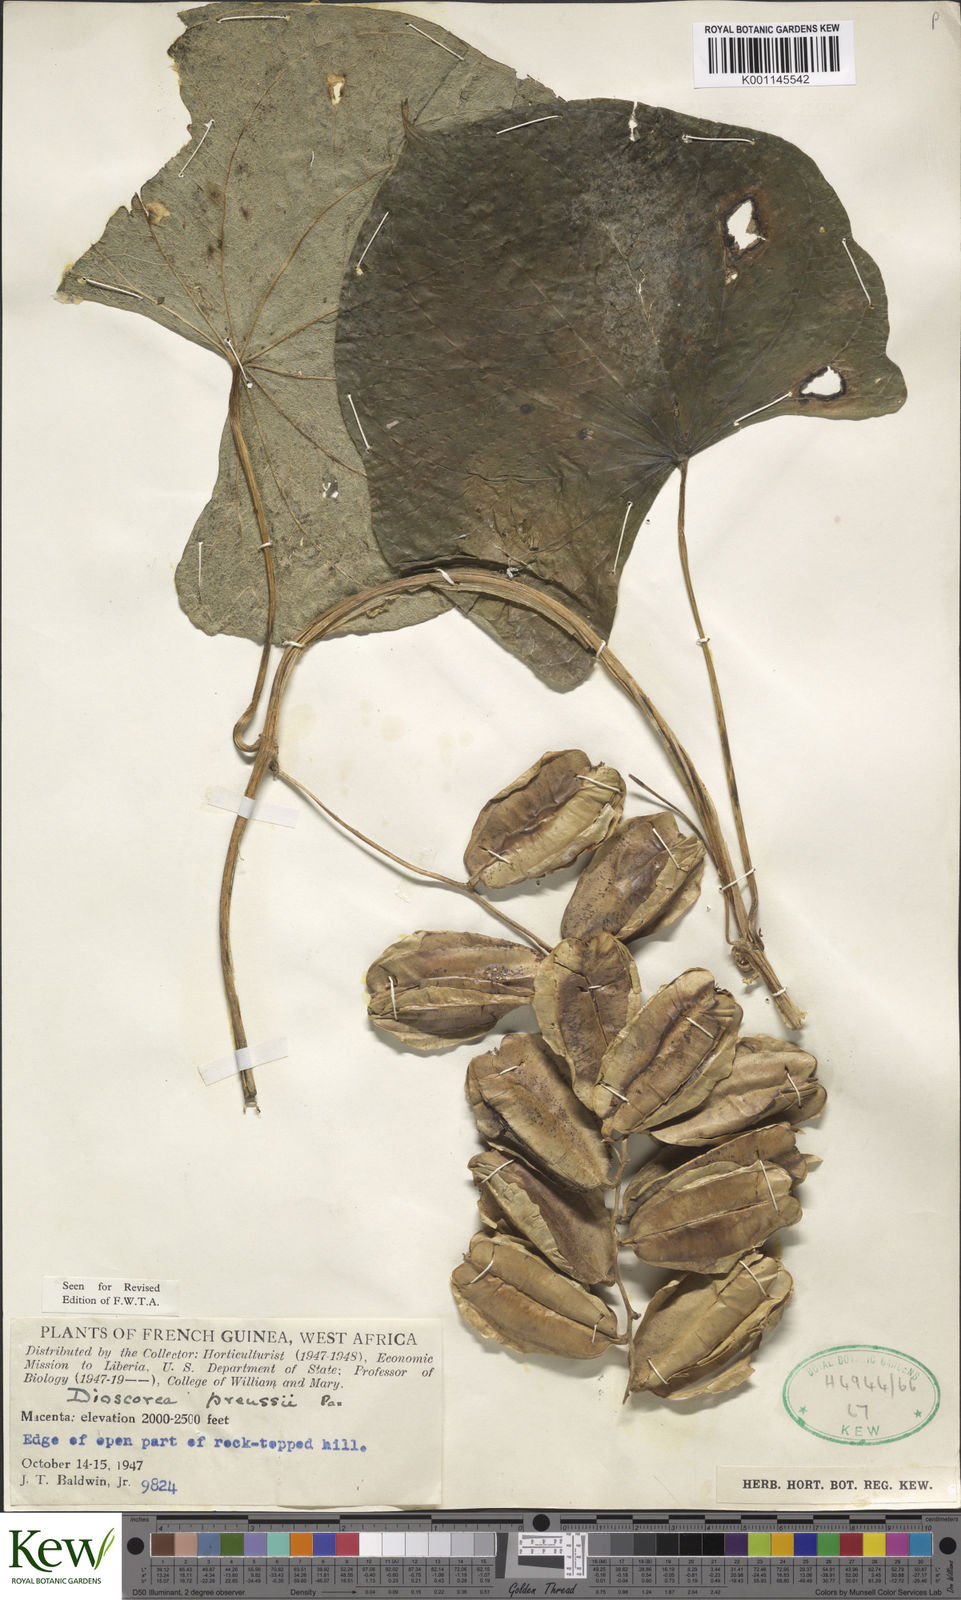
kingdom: Plantae
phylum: Tracheophyta
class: Liliopsida
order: Dioscoreales
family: Dioscoreaceae
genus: Dioscorea
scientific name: Dioscorea preussii
